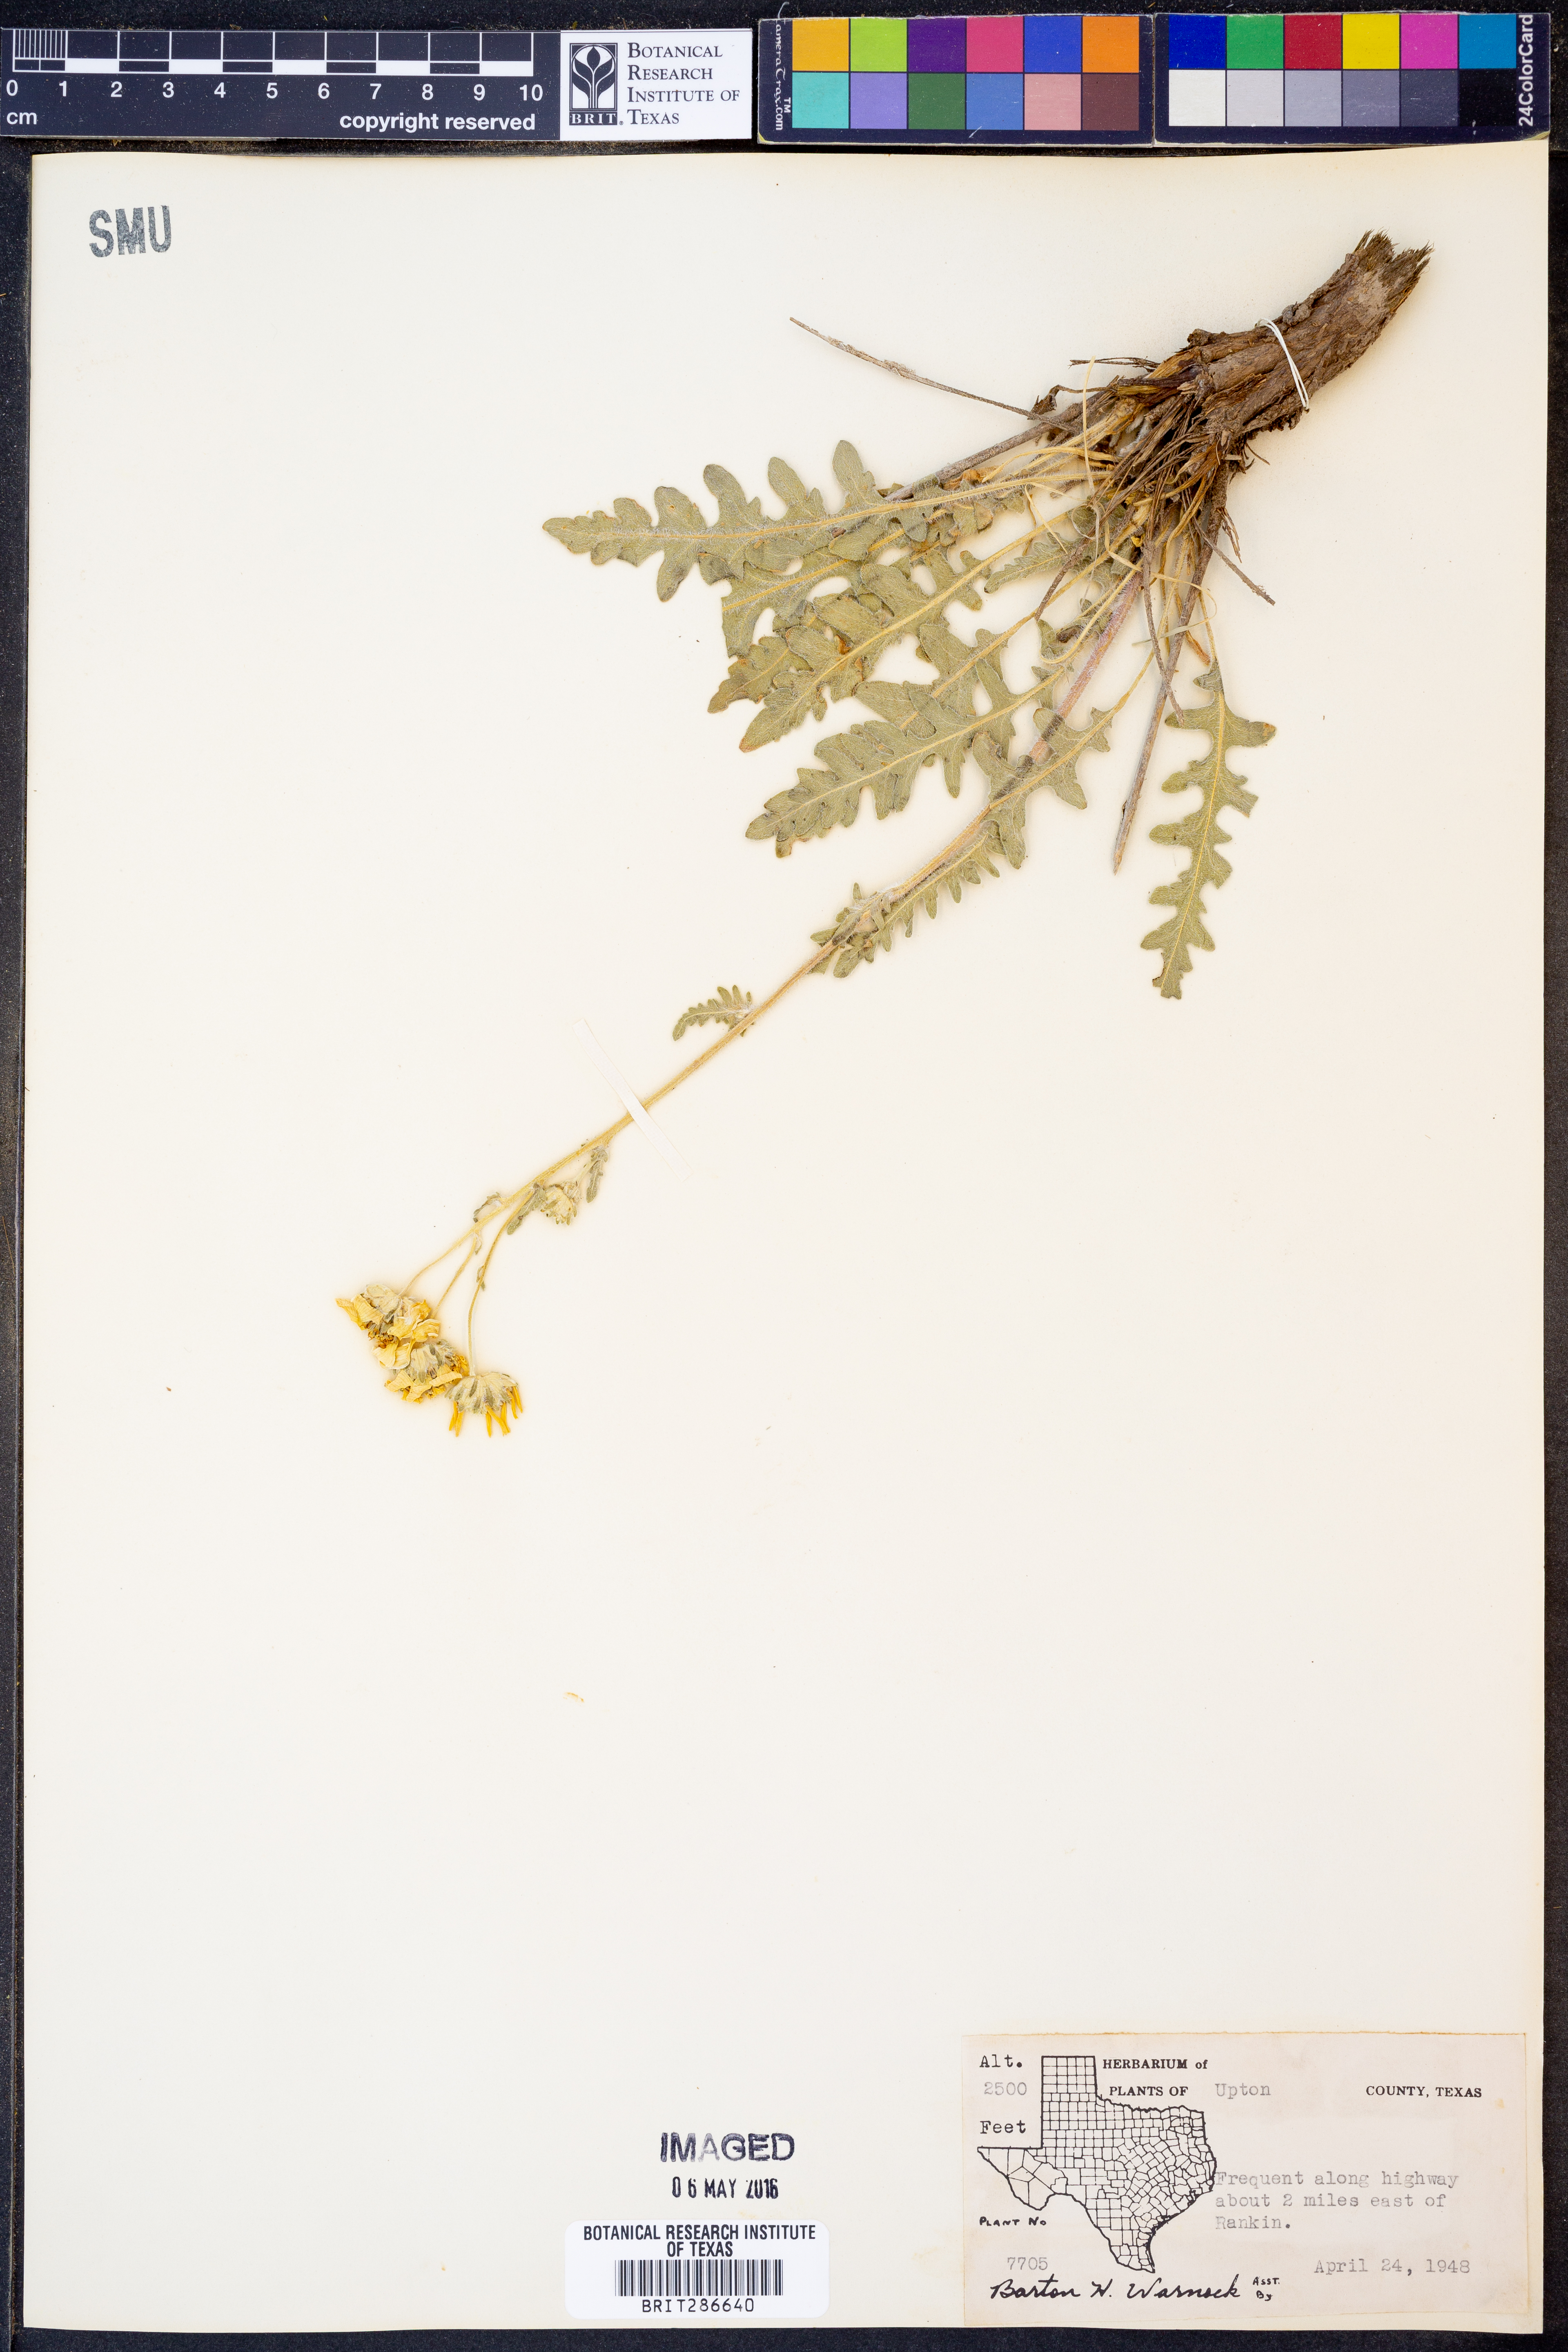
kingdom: Plantae
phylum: Tracheophyta
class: Magnoliopsida
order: Asterales
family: Asteraceae
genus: Engelmannia
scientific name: Engelmannia peristenia
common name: Engelmann's daisy
